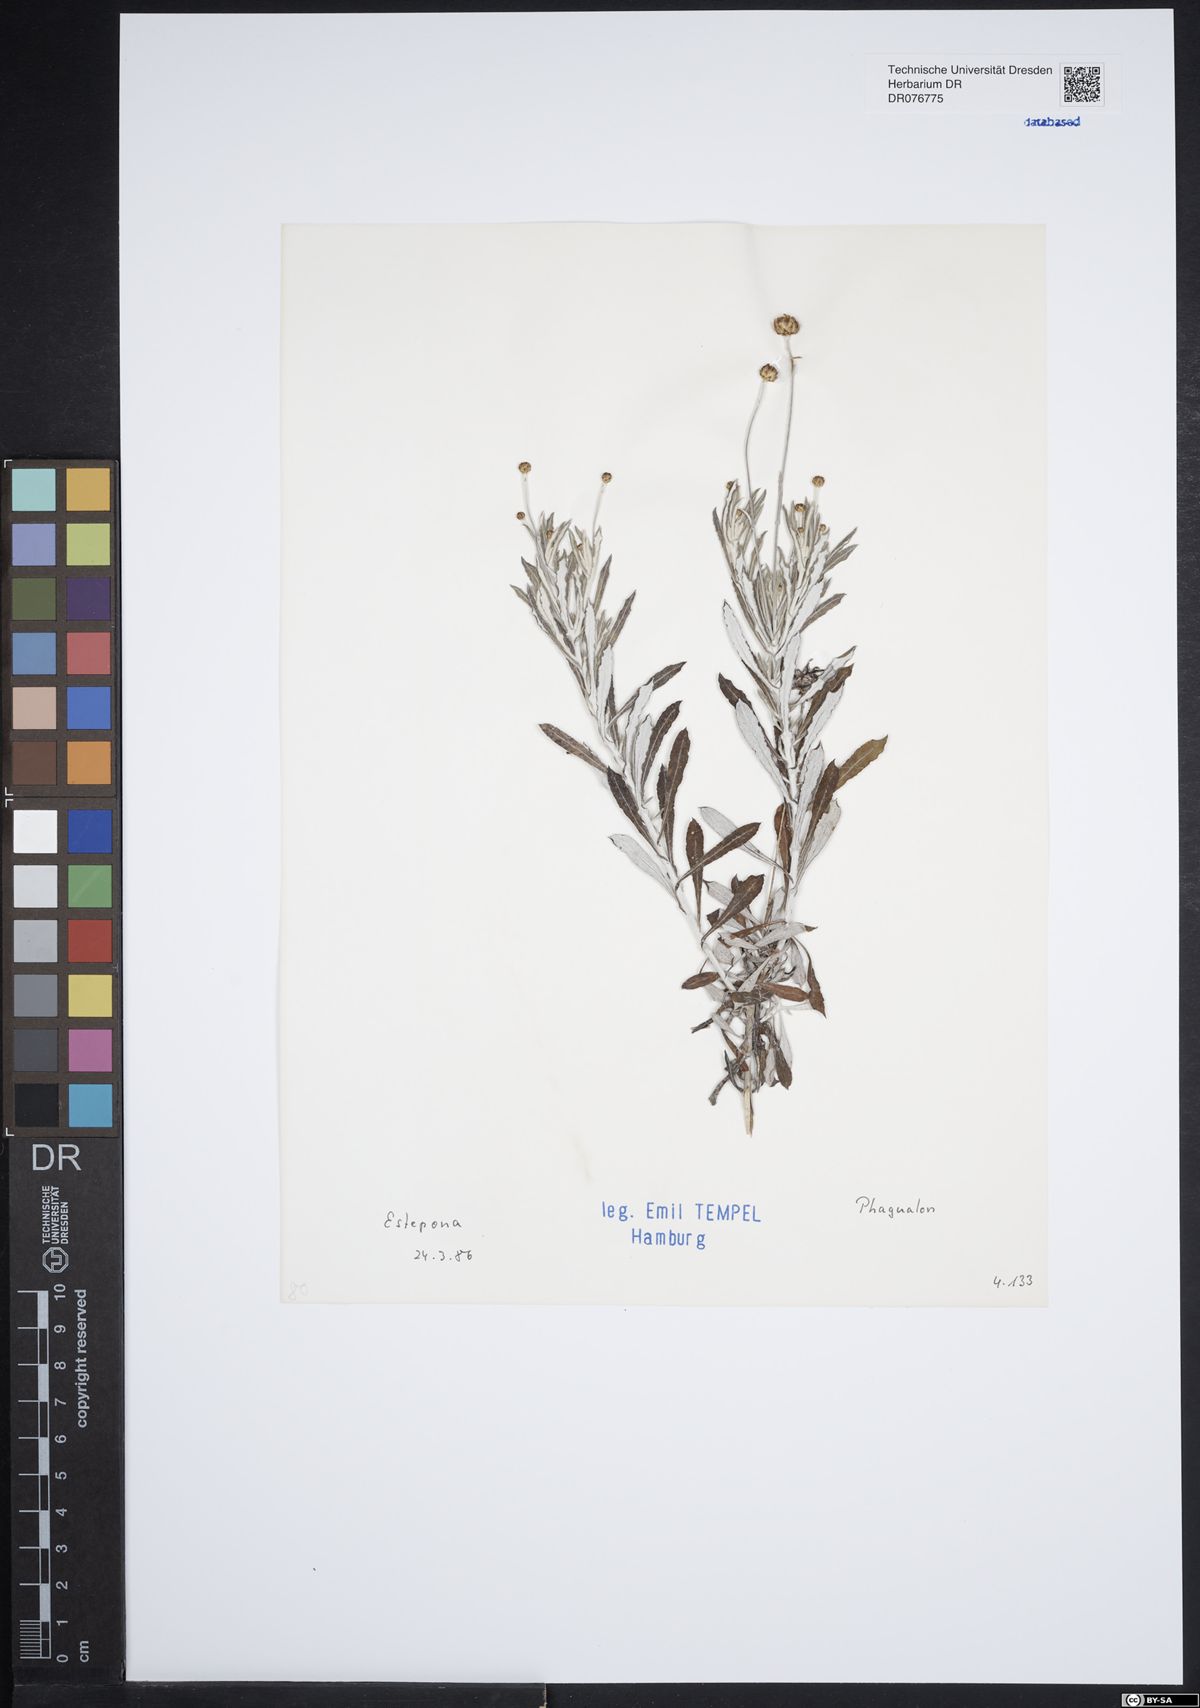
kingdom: Plantae
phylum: Tracheophyta
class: Magnoliopsida
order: Asterales
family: Asteraceae
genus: Phagnalon
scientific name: Phagnalon
